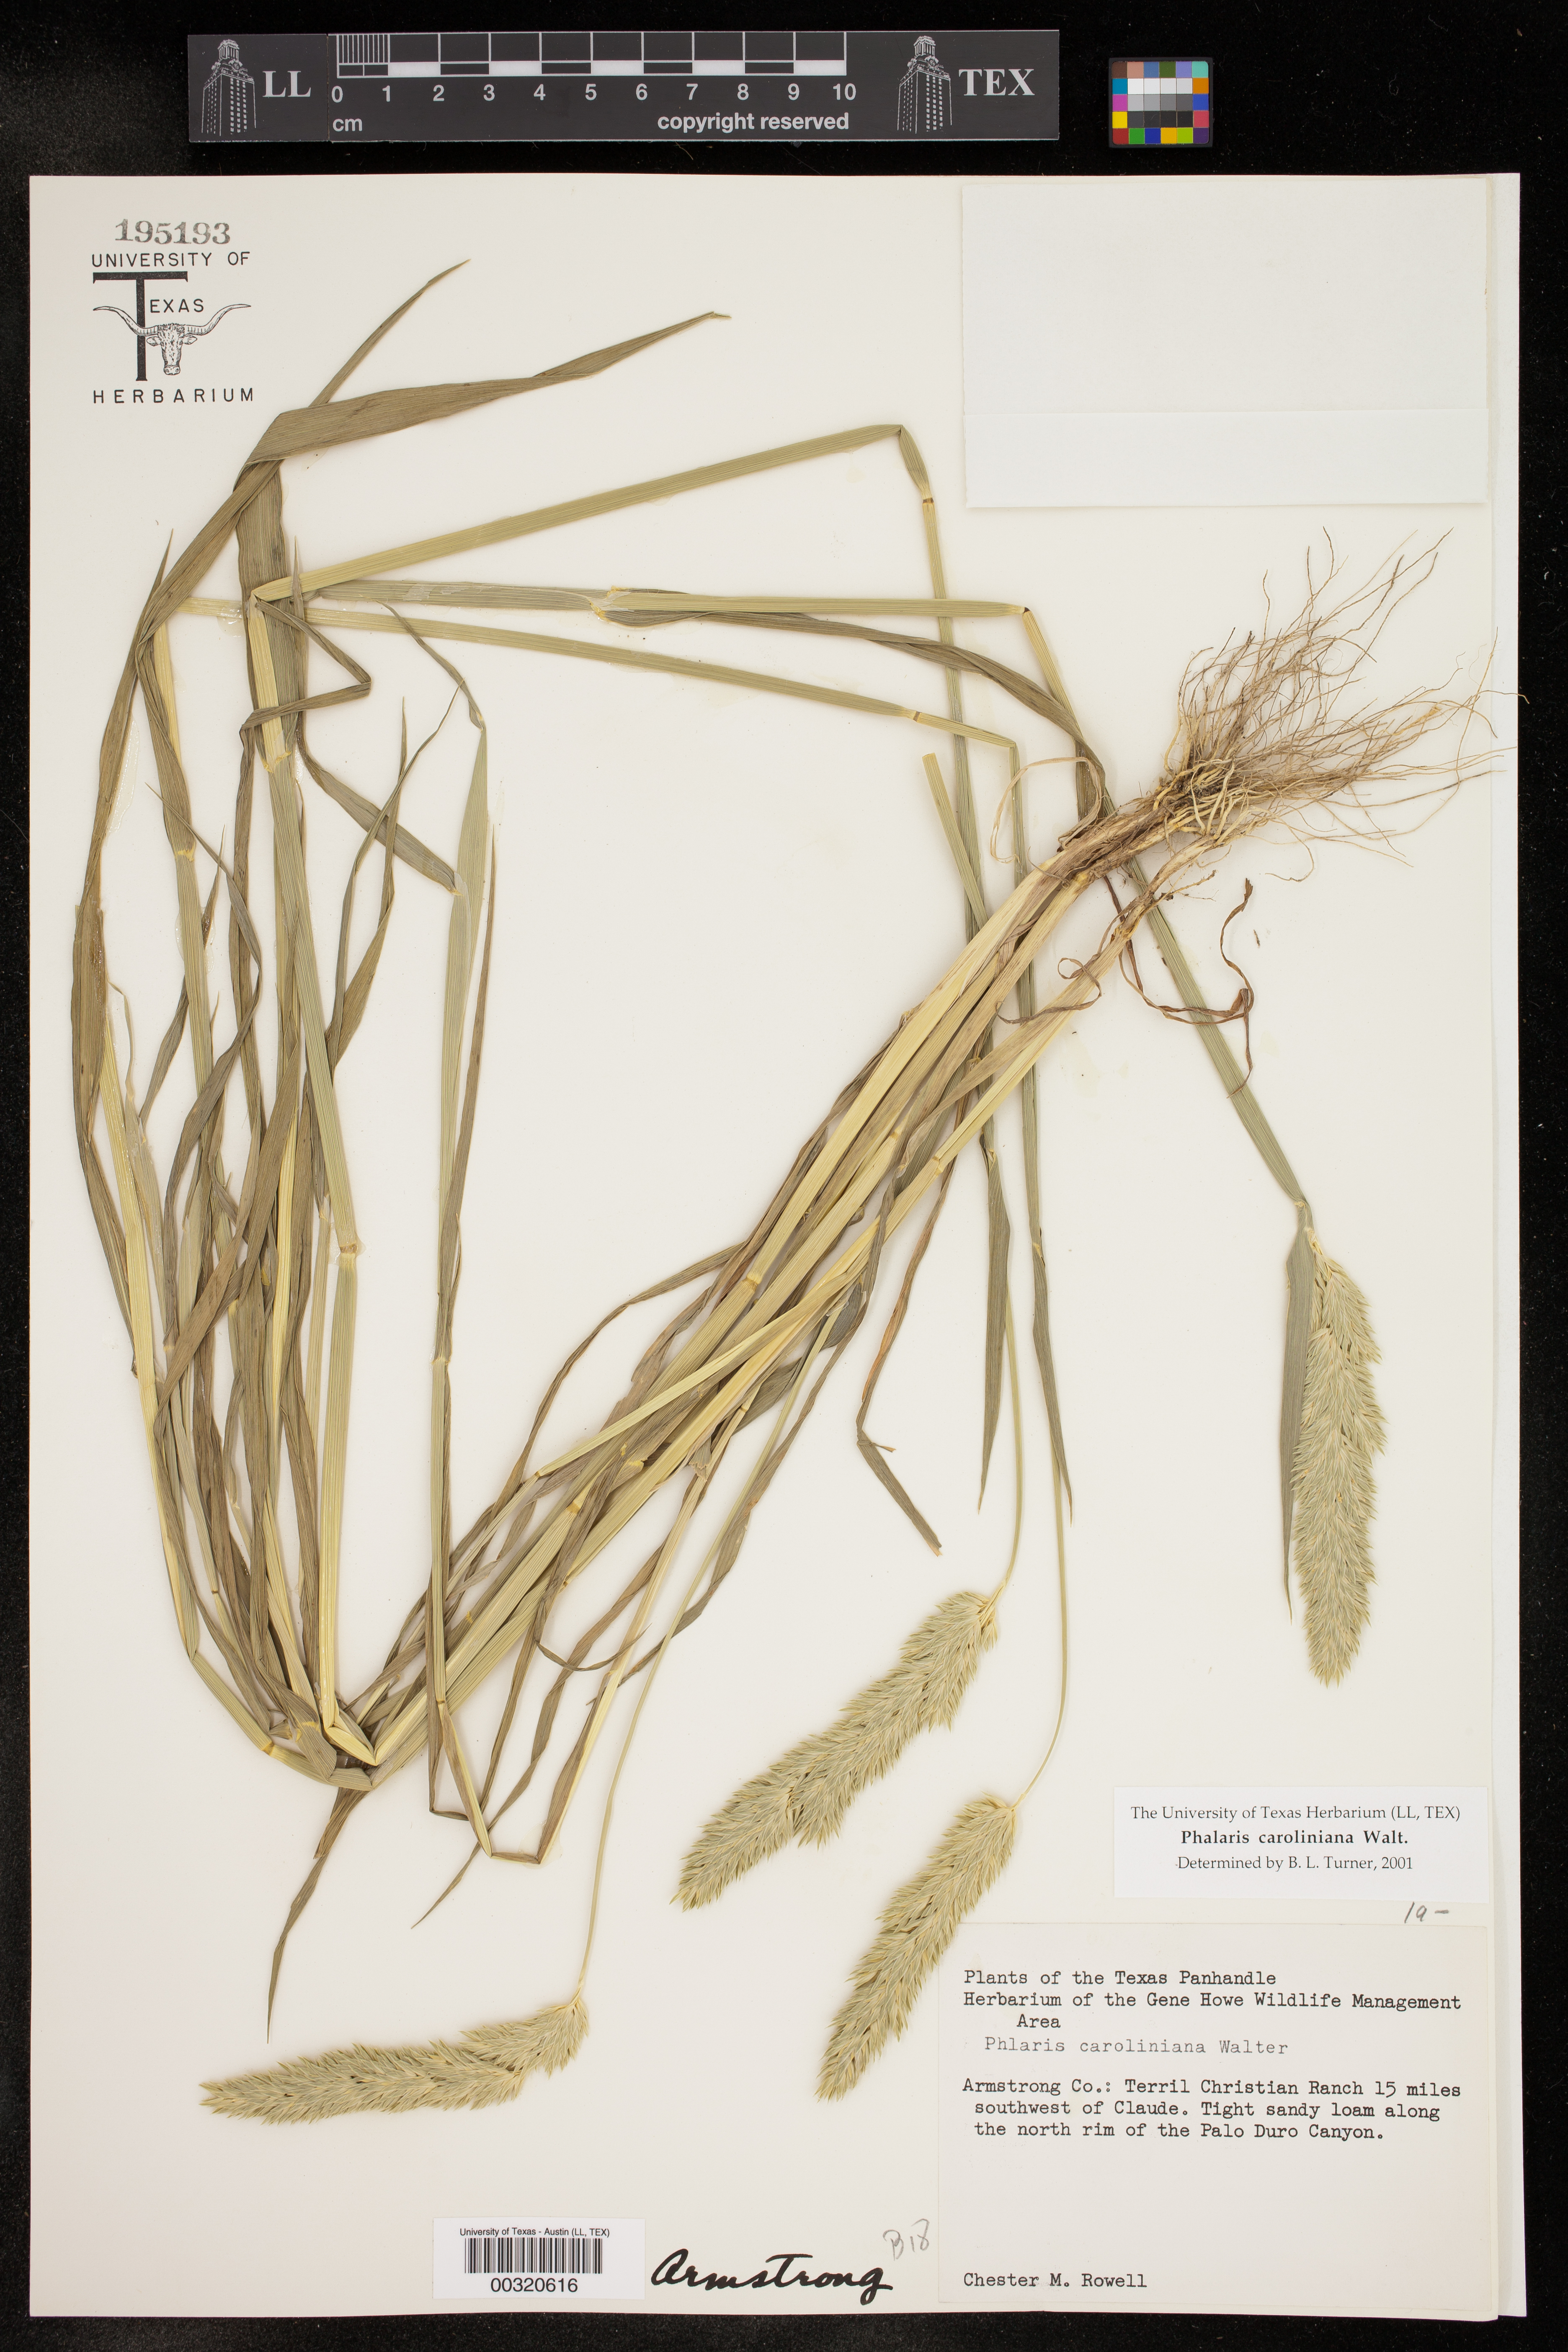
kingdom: Plantae
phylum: Tracheophyta
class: Liliopsida
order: Poales
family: Poaceae
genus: Phalaris
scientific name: Phalaris caroliniana
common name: May grass
